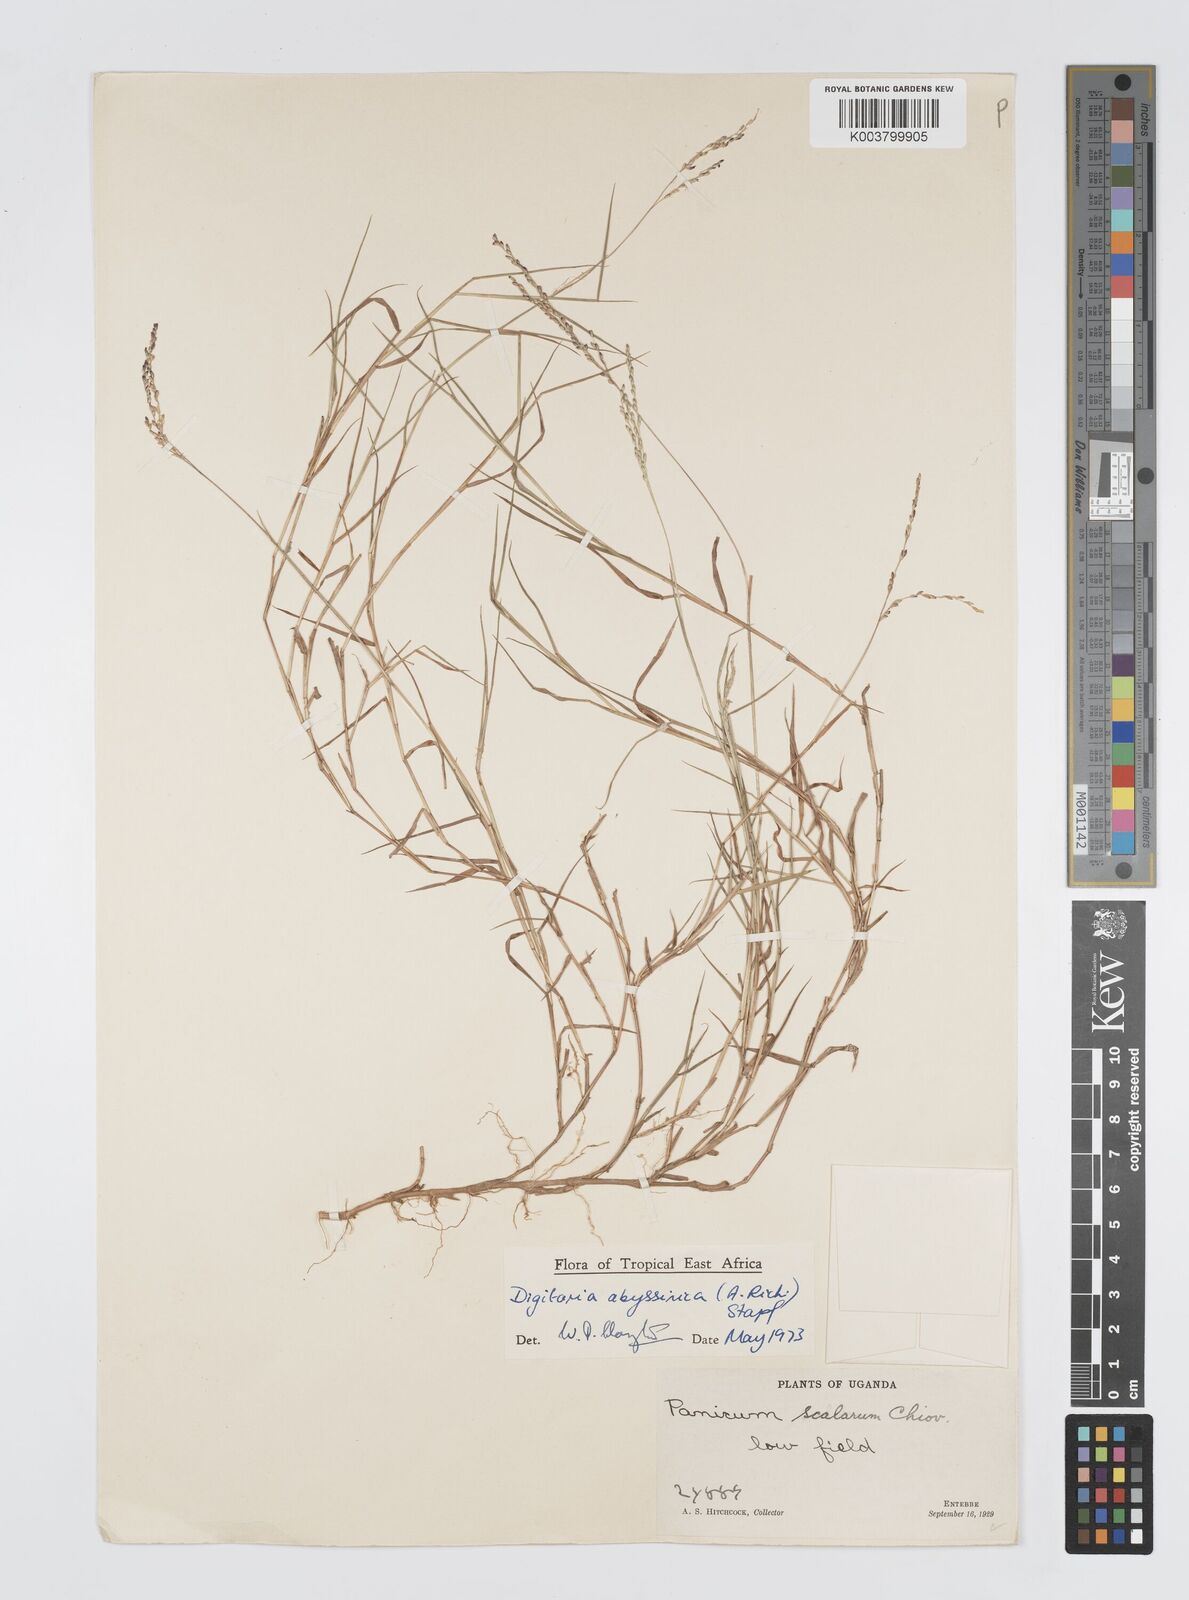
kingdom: Plantae
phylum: Tracheophyta
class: Liliopsida
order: Poales
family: Poaceae
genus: Digitaria
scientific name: Digitaria abyssinica
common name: African couchgrass
